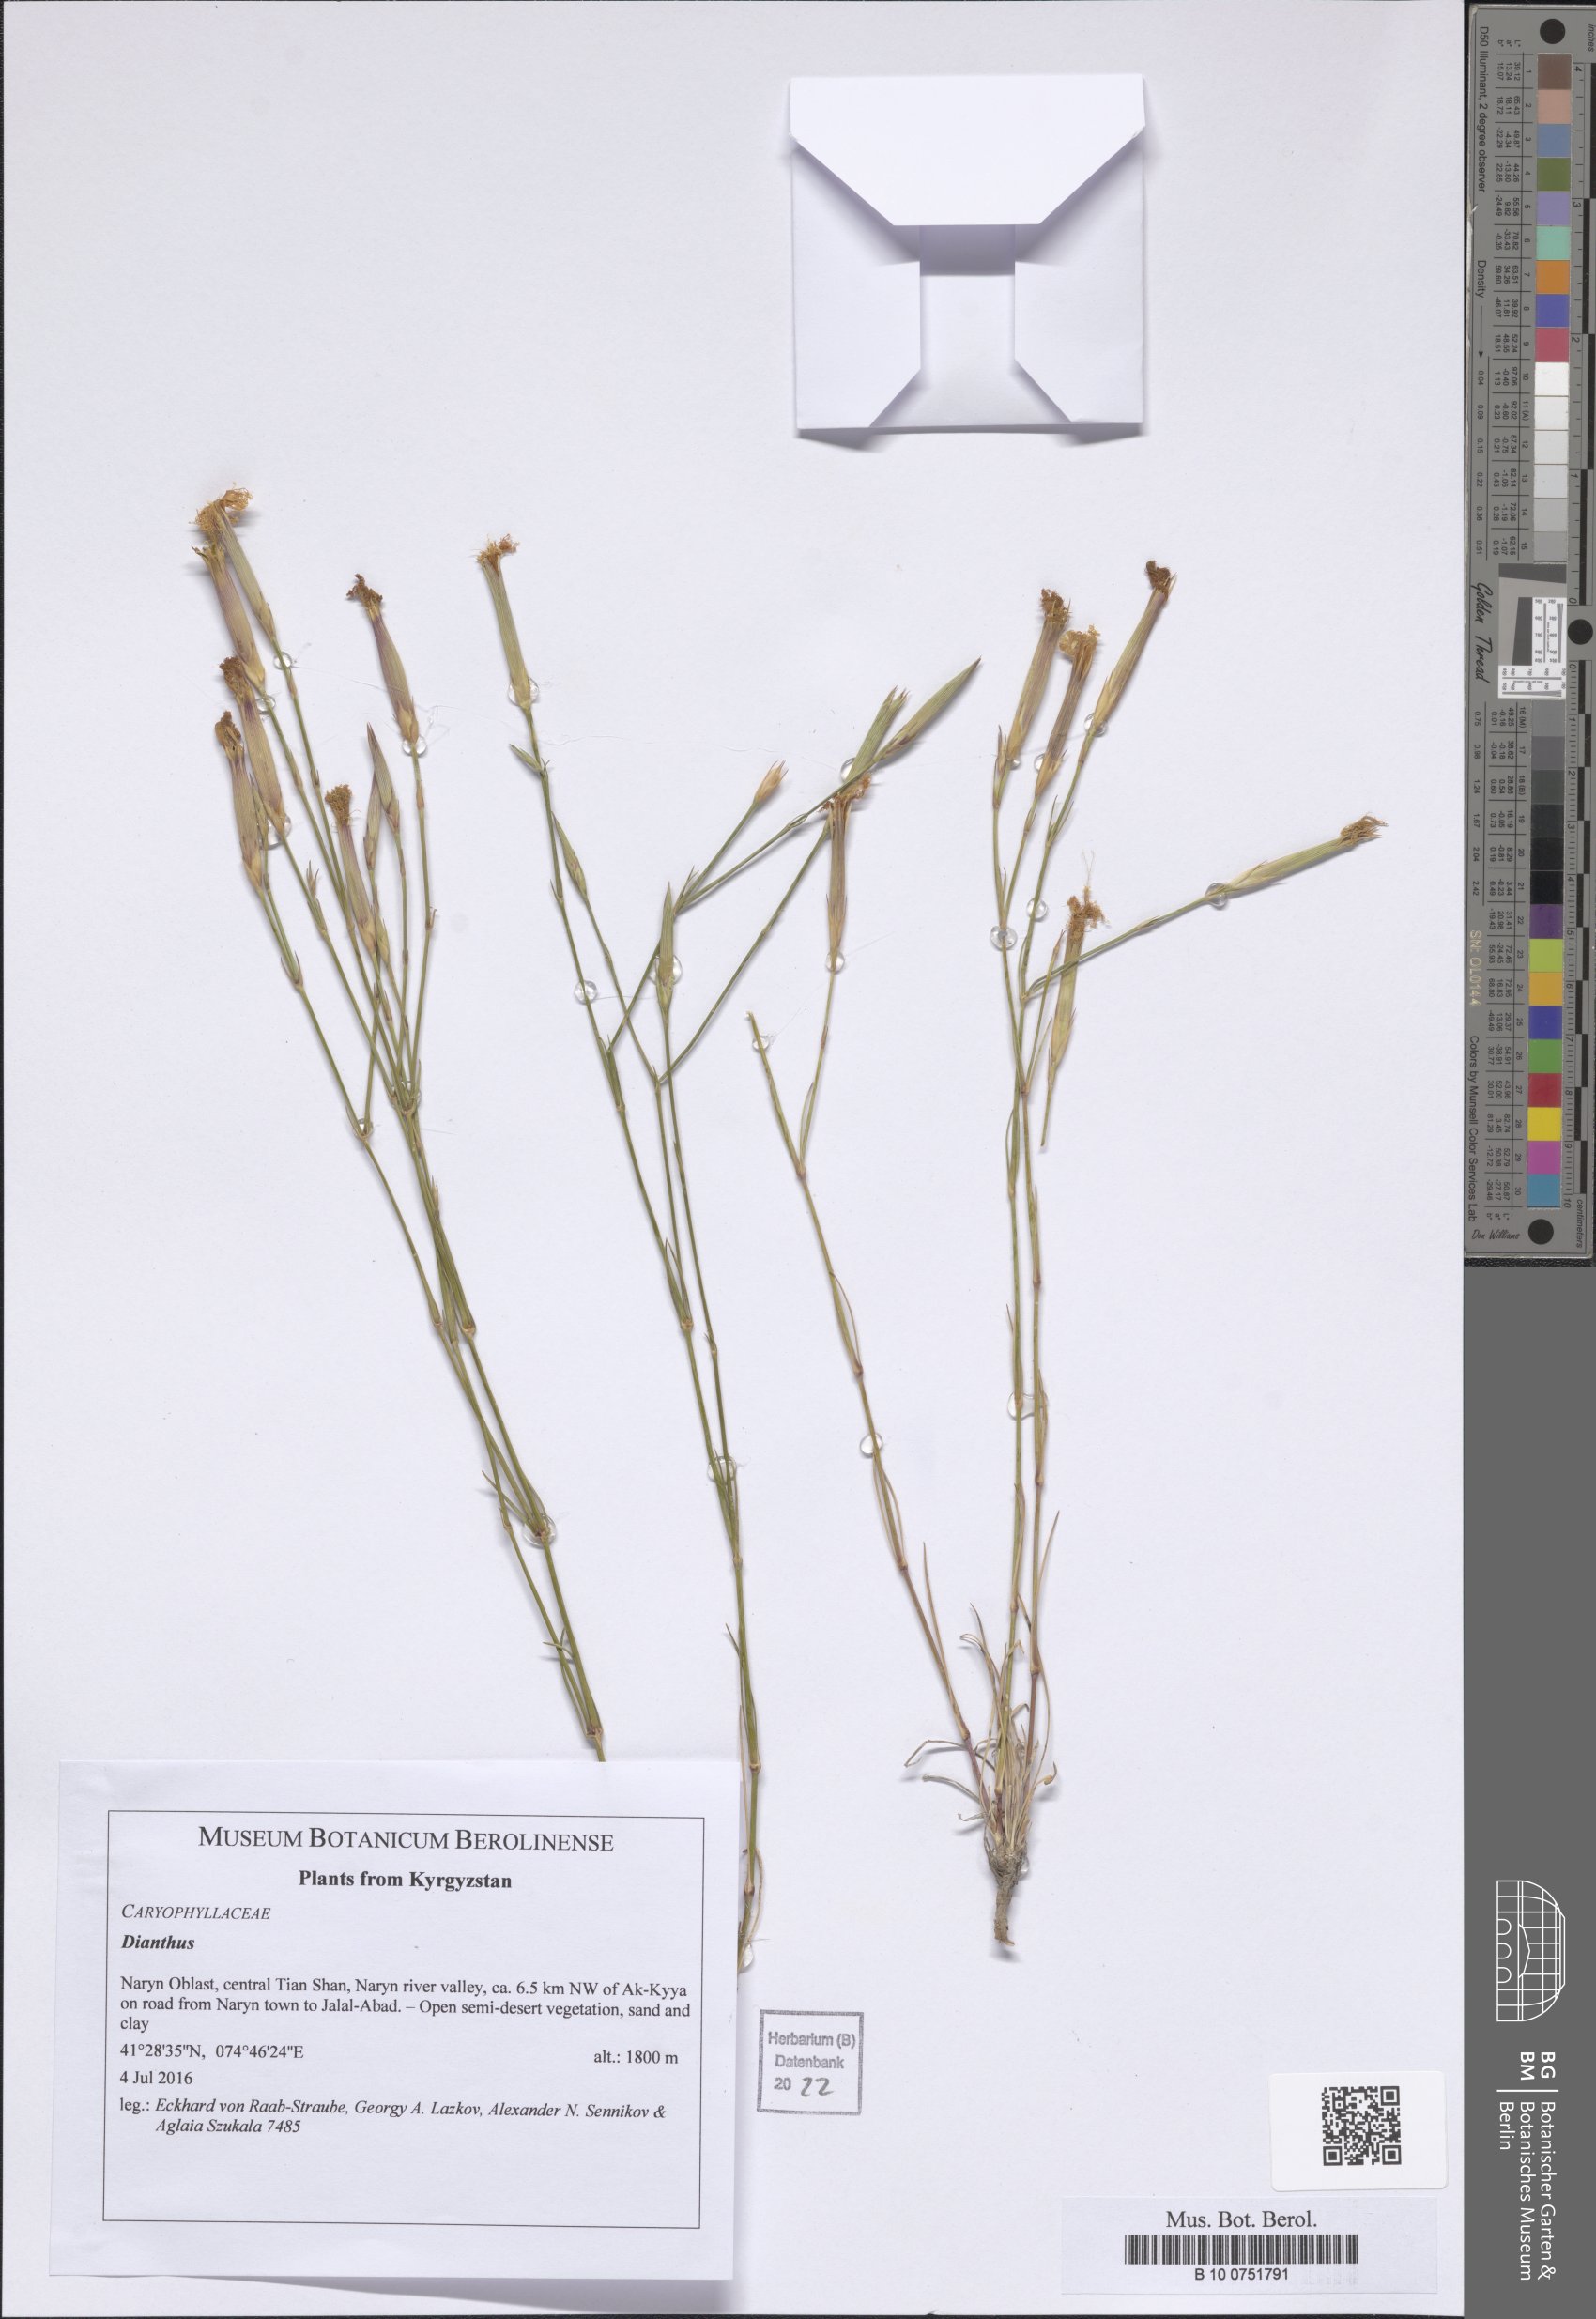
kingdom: Plantae
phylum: Tracheophyta
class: Magnoliopsida
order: Caryophyllales
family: Caryophyllaceae
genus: Dianthus
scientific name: Dianthus
